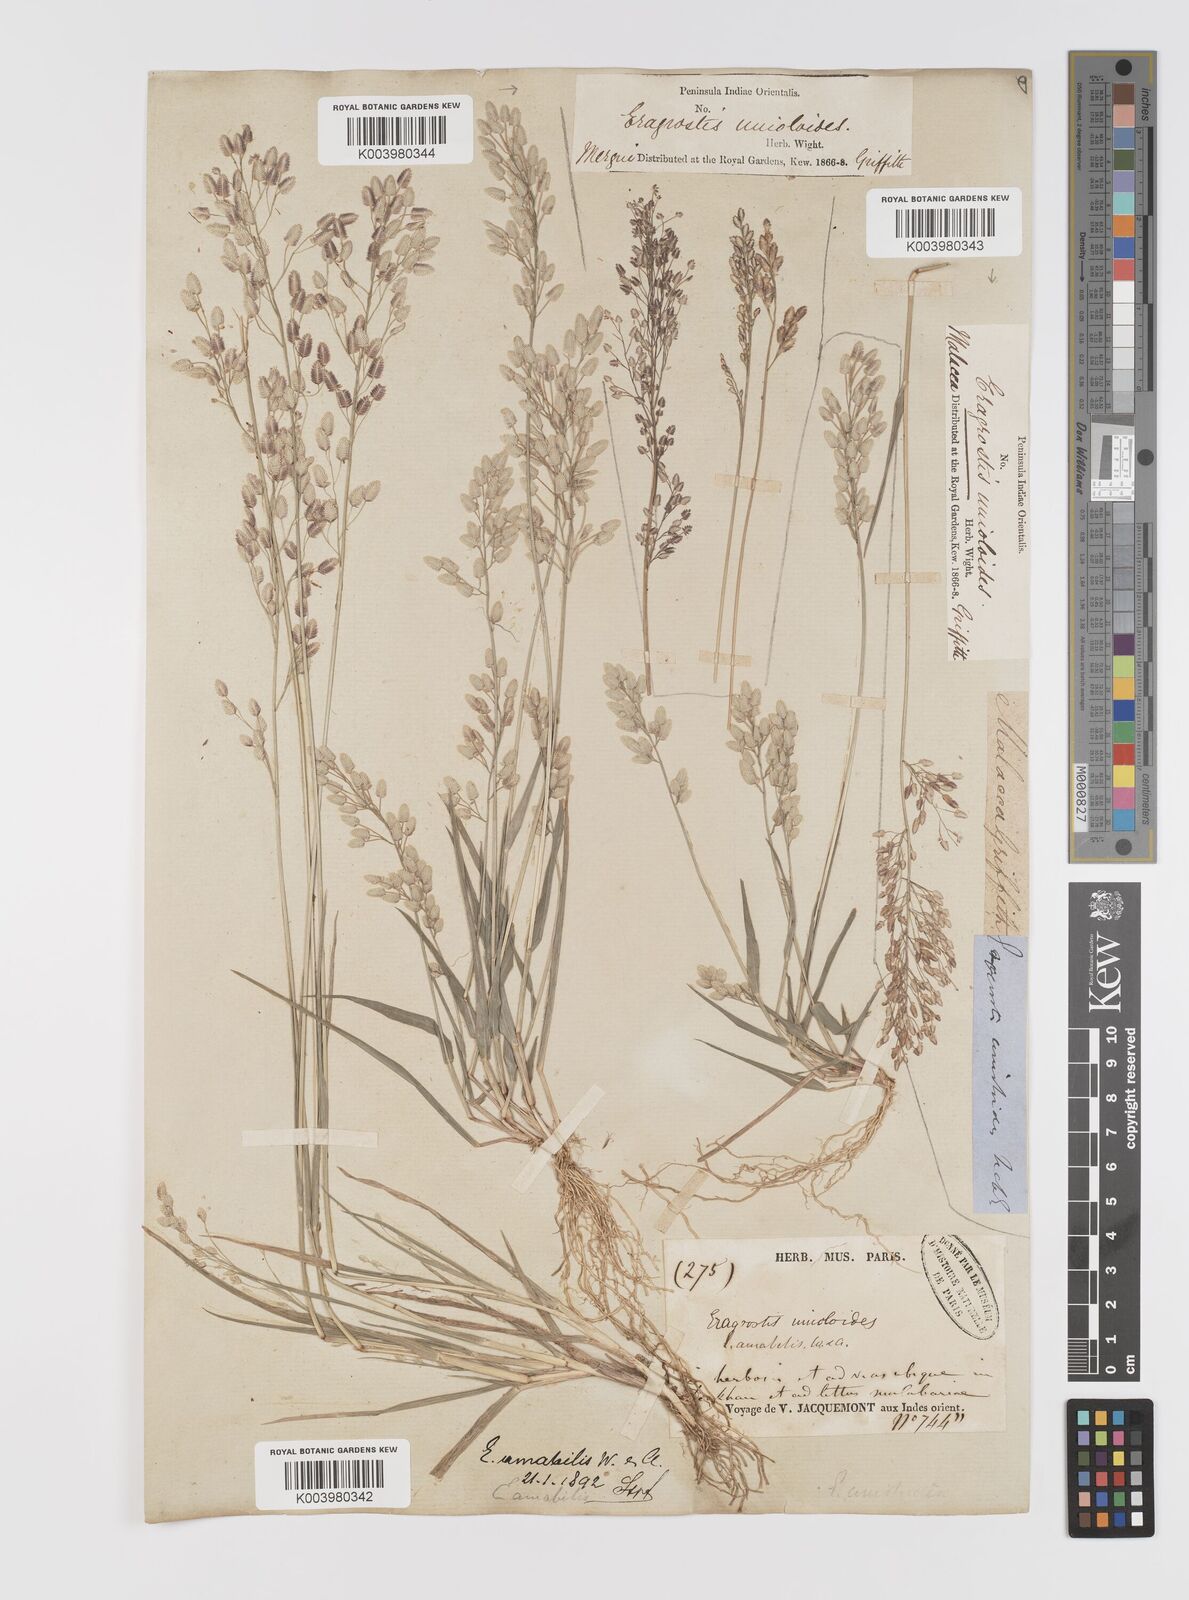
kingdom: Plantae
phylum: Tracheophyta
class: Liliopsida
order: Poales
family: Poaceae
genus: Eragrostis
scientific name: Eragrostis unioloides
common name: Chinese lovegrass
